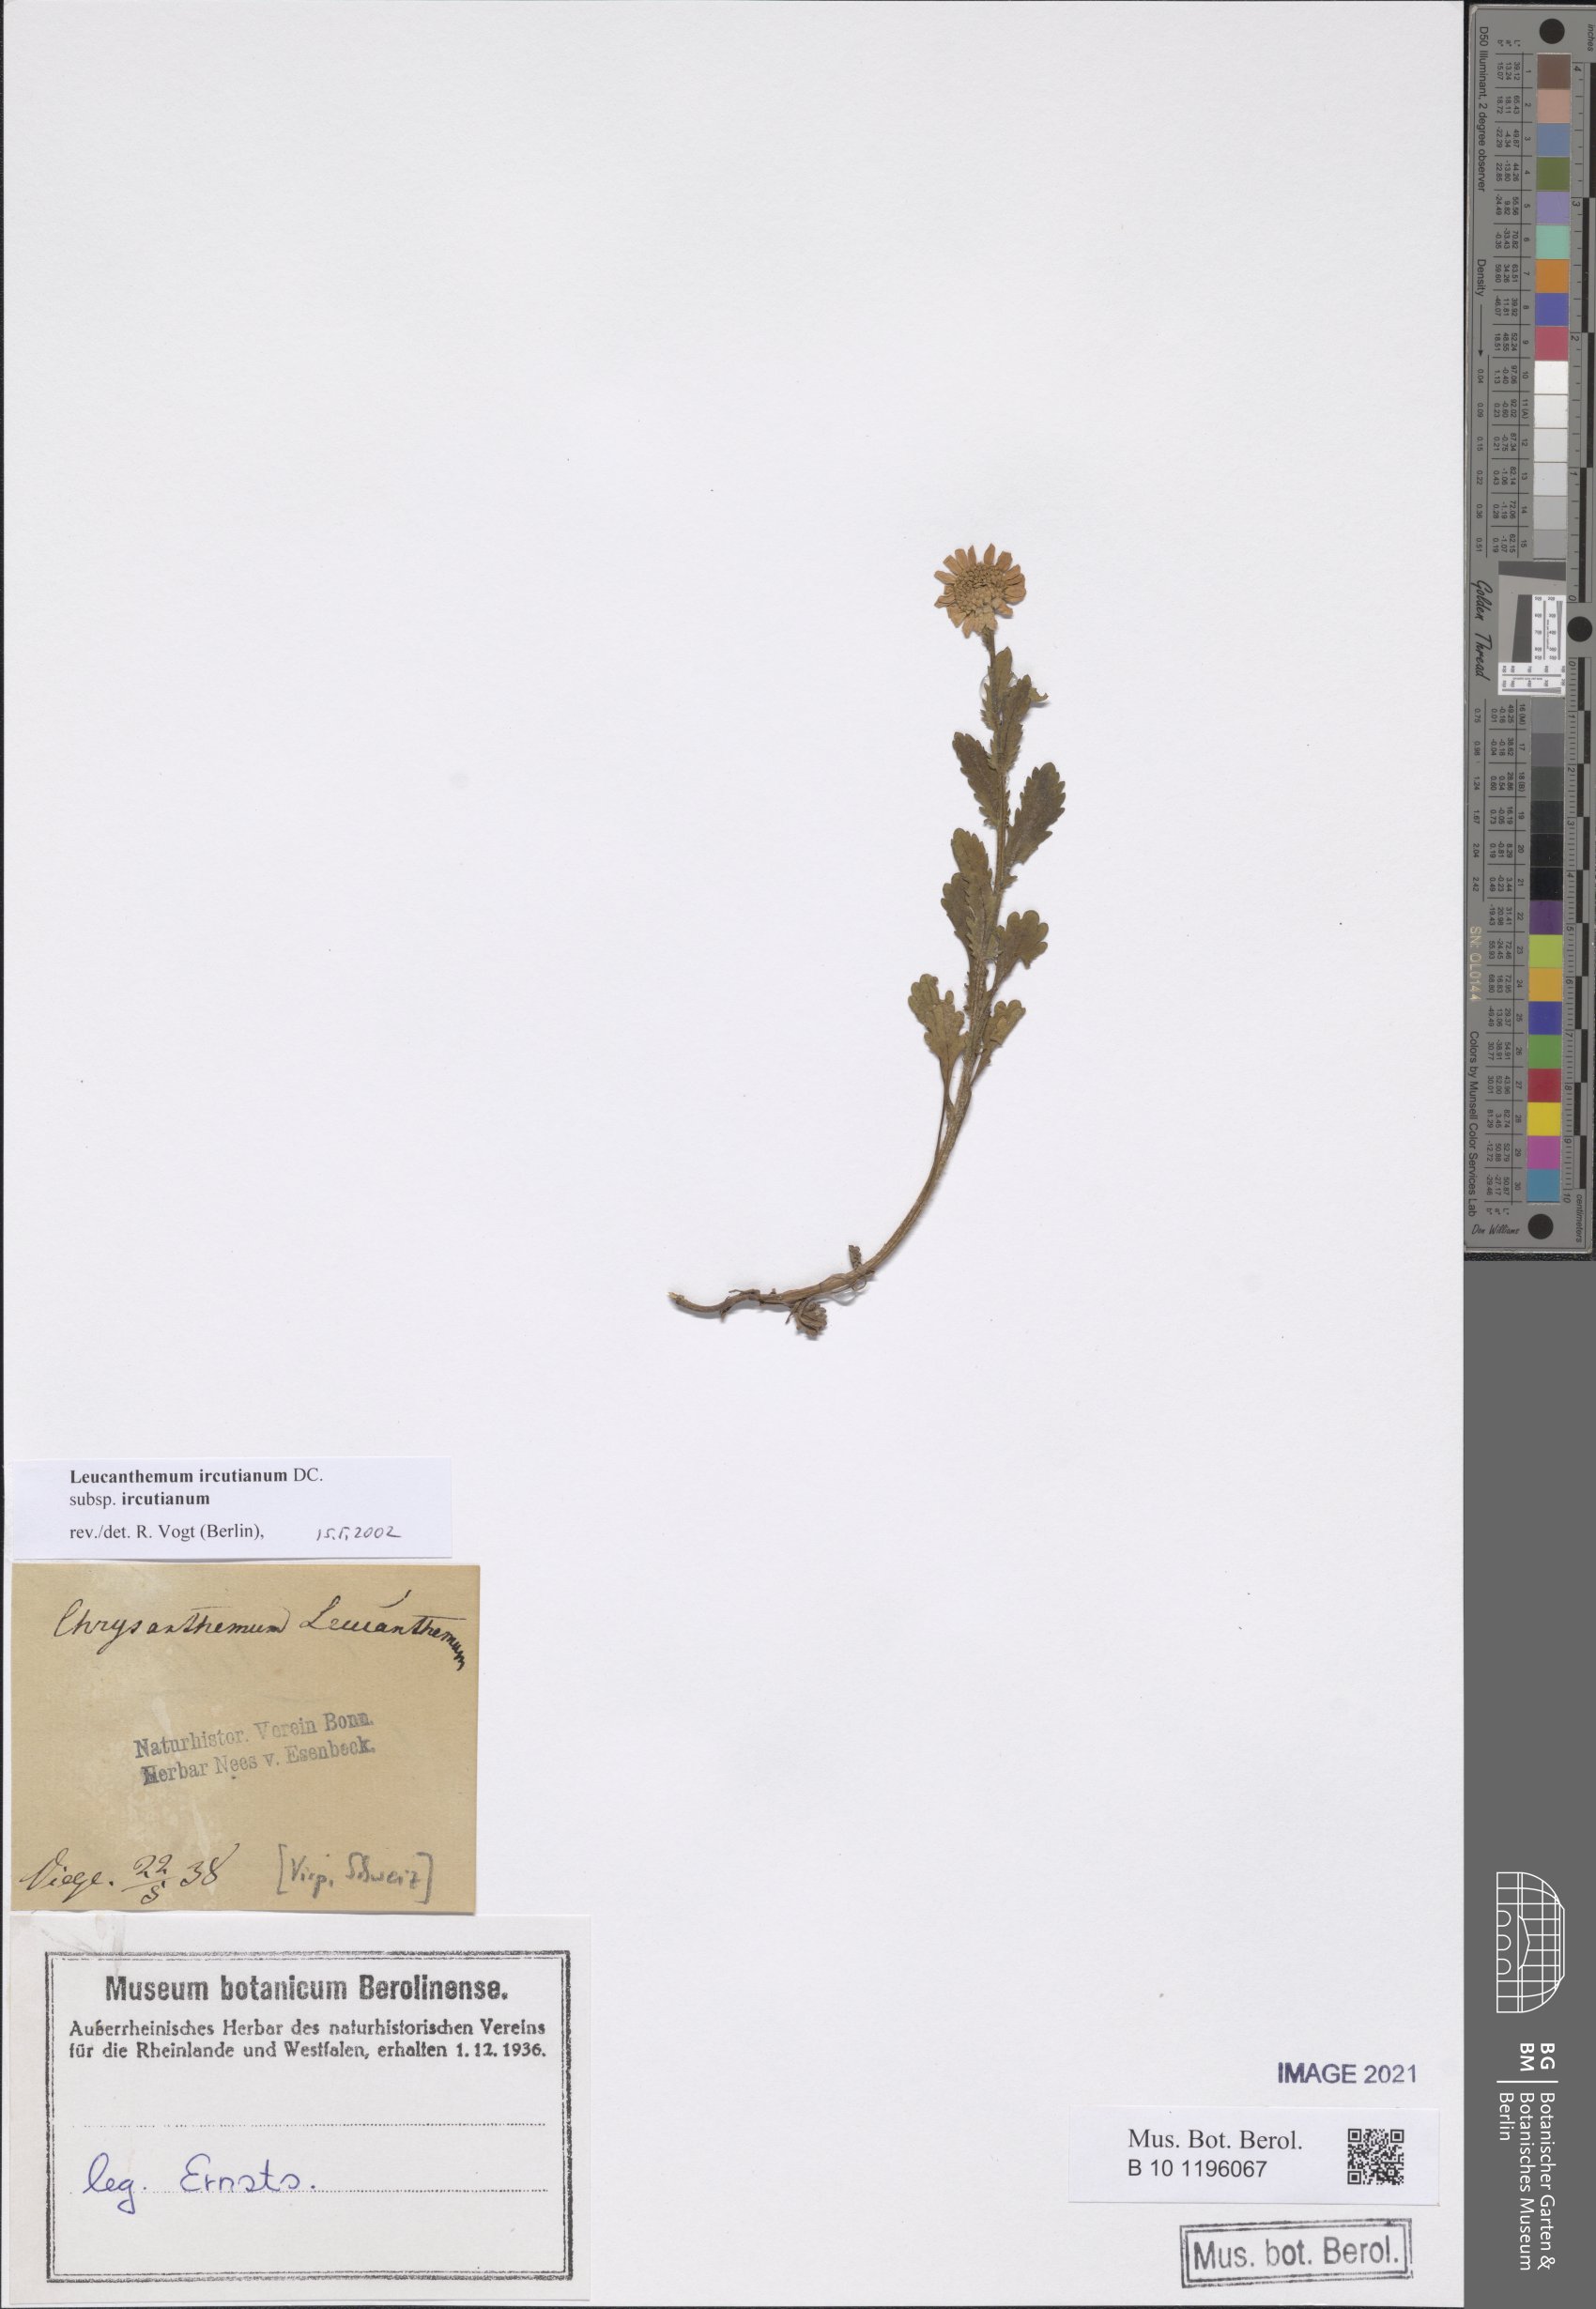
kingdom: Plantae
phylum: Tracheophyta
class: Magnoliopsida
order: Asterales
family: Asteraceae
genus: Leucanthemum
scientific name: Leucanthemum ircutianum
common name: Daisy
